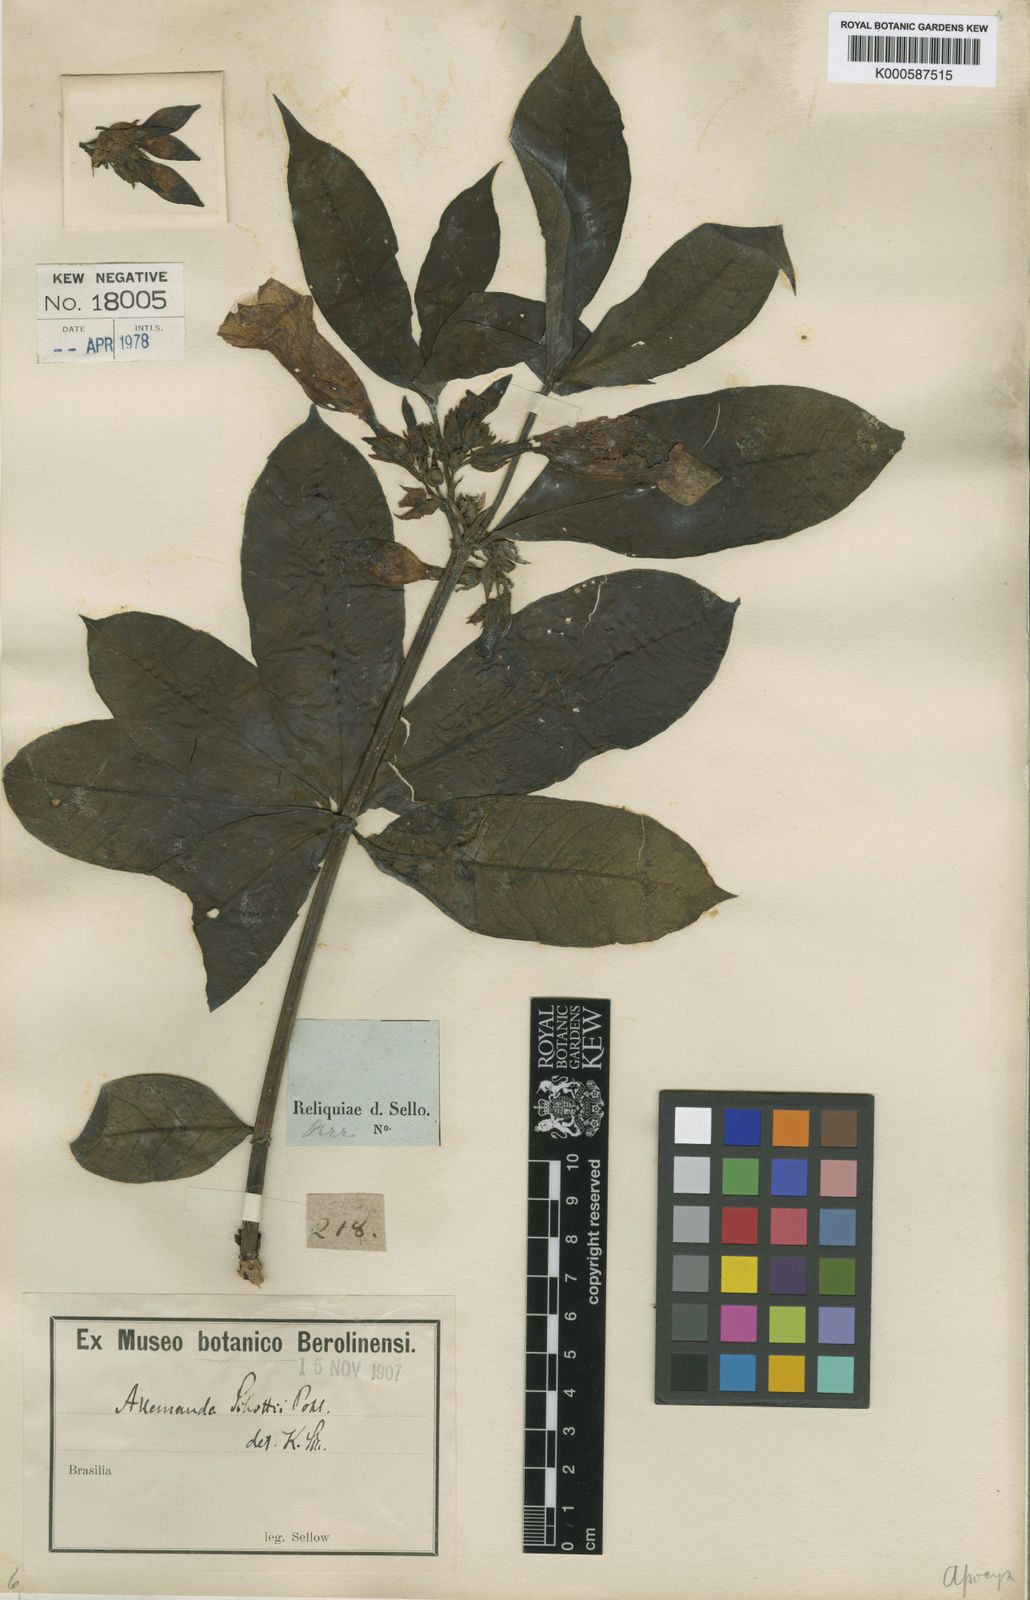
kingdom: Plantae
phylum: Tracheophyta
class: Magnoliopsida
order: Gentianales
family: Apocynaceae
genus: Allamanda
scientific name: Allamanda schottii
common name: Bush allamanda
